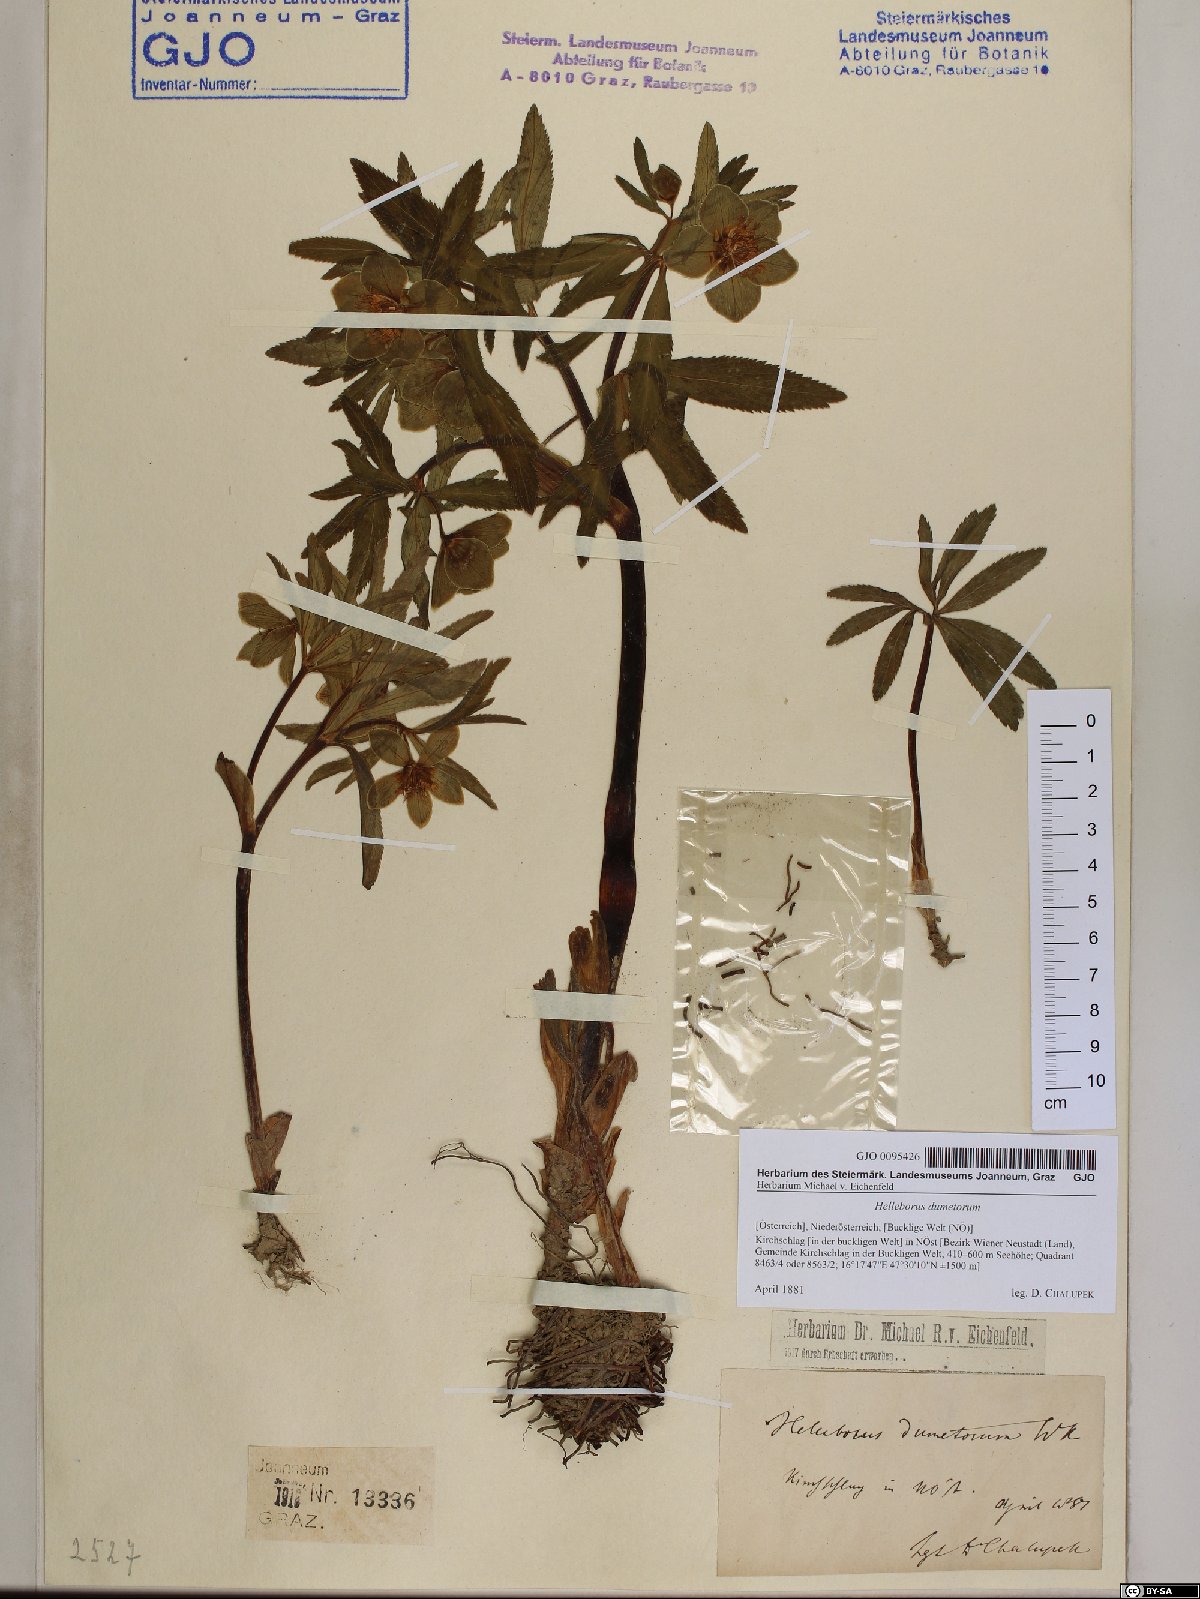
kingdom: Plantae
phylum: Tracheophyta
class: Magnoliopsida
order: Ranunculales
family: Ranunculaceae
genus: Helleborus
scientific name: Helleborus dumetorum
